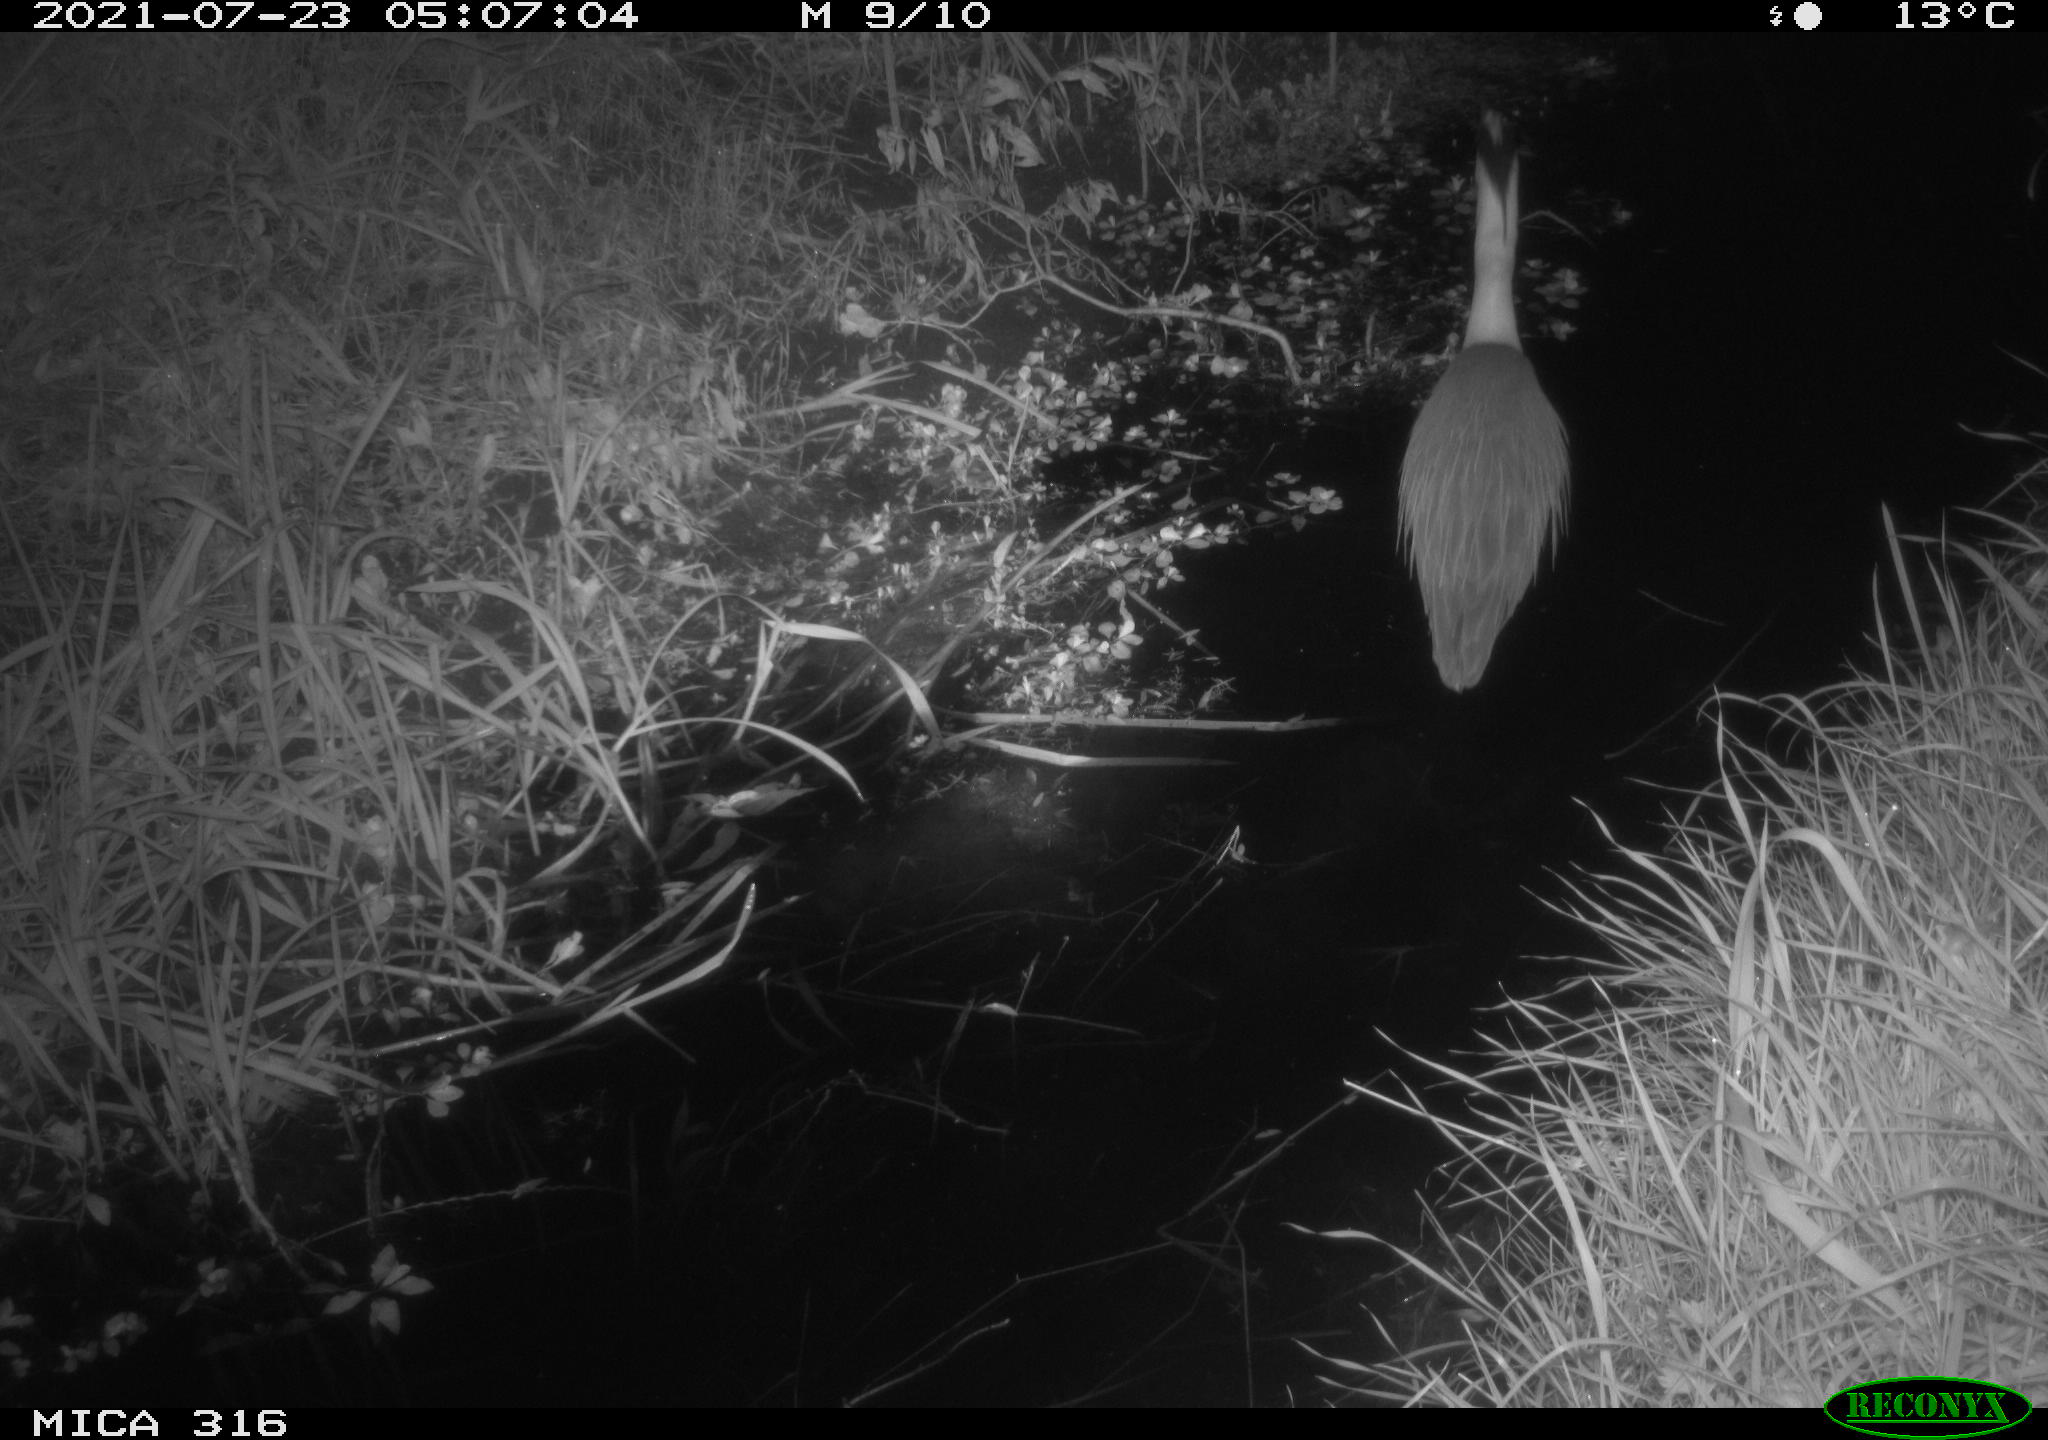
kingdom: Animalia
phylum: Chordata
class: Aves
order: Pelecaniformes
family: Ardeidae
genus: Ardea
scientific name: Ardea
